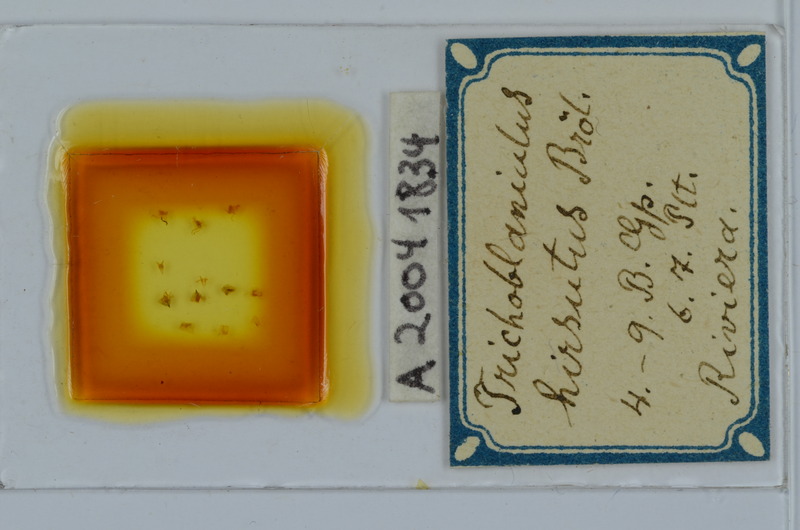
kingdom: Animalia
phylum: Arthropoda
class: Diplopoda
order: Julida
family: Trichoblaniulidae
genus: Trichoblaniulus
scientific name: Trichoblaniulus hirsutus
